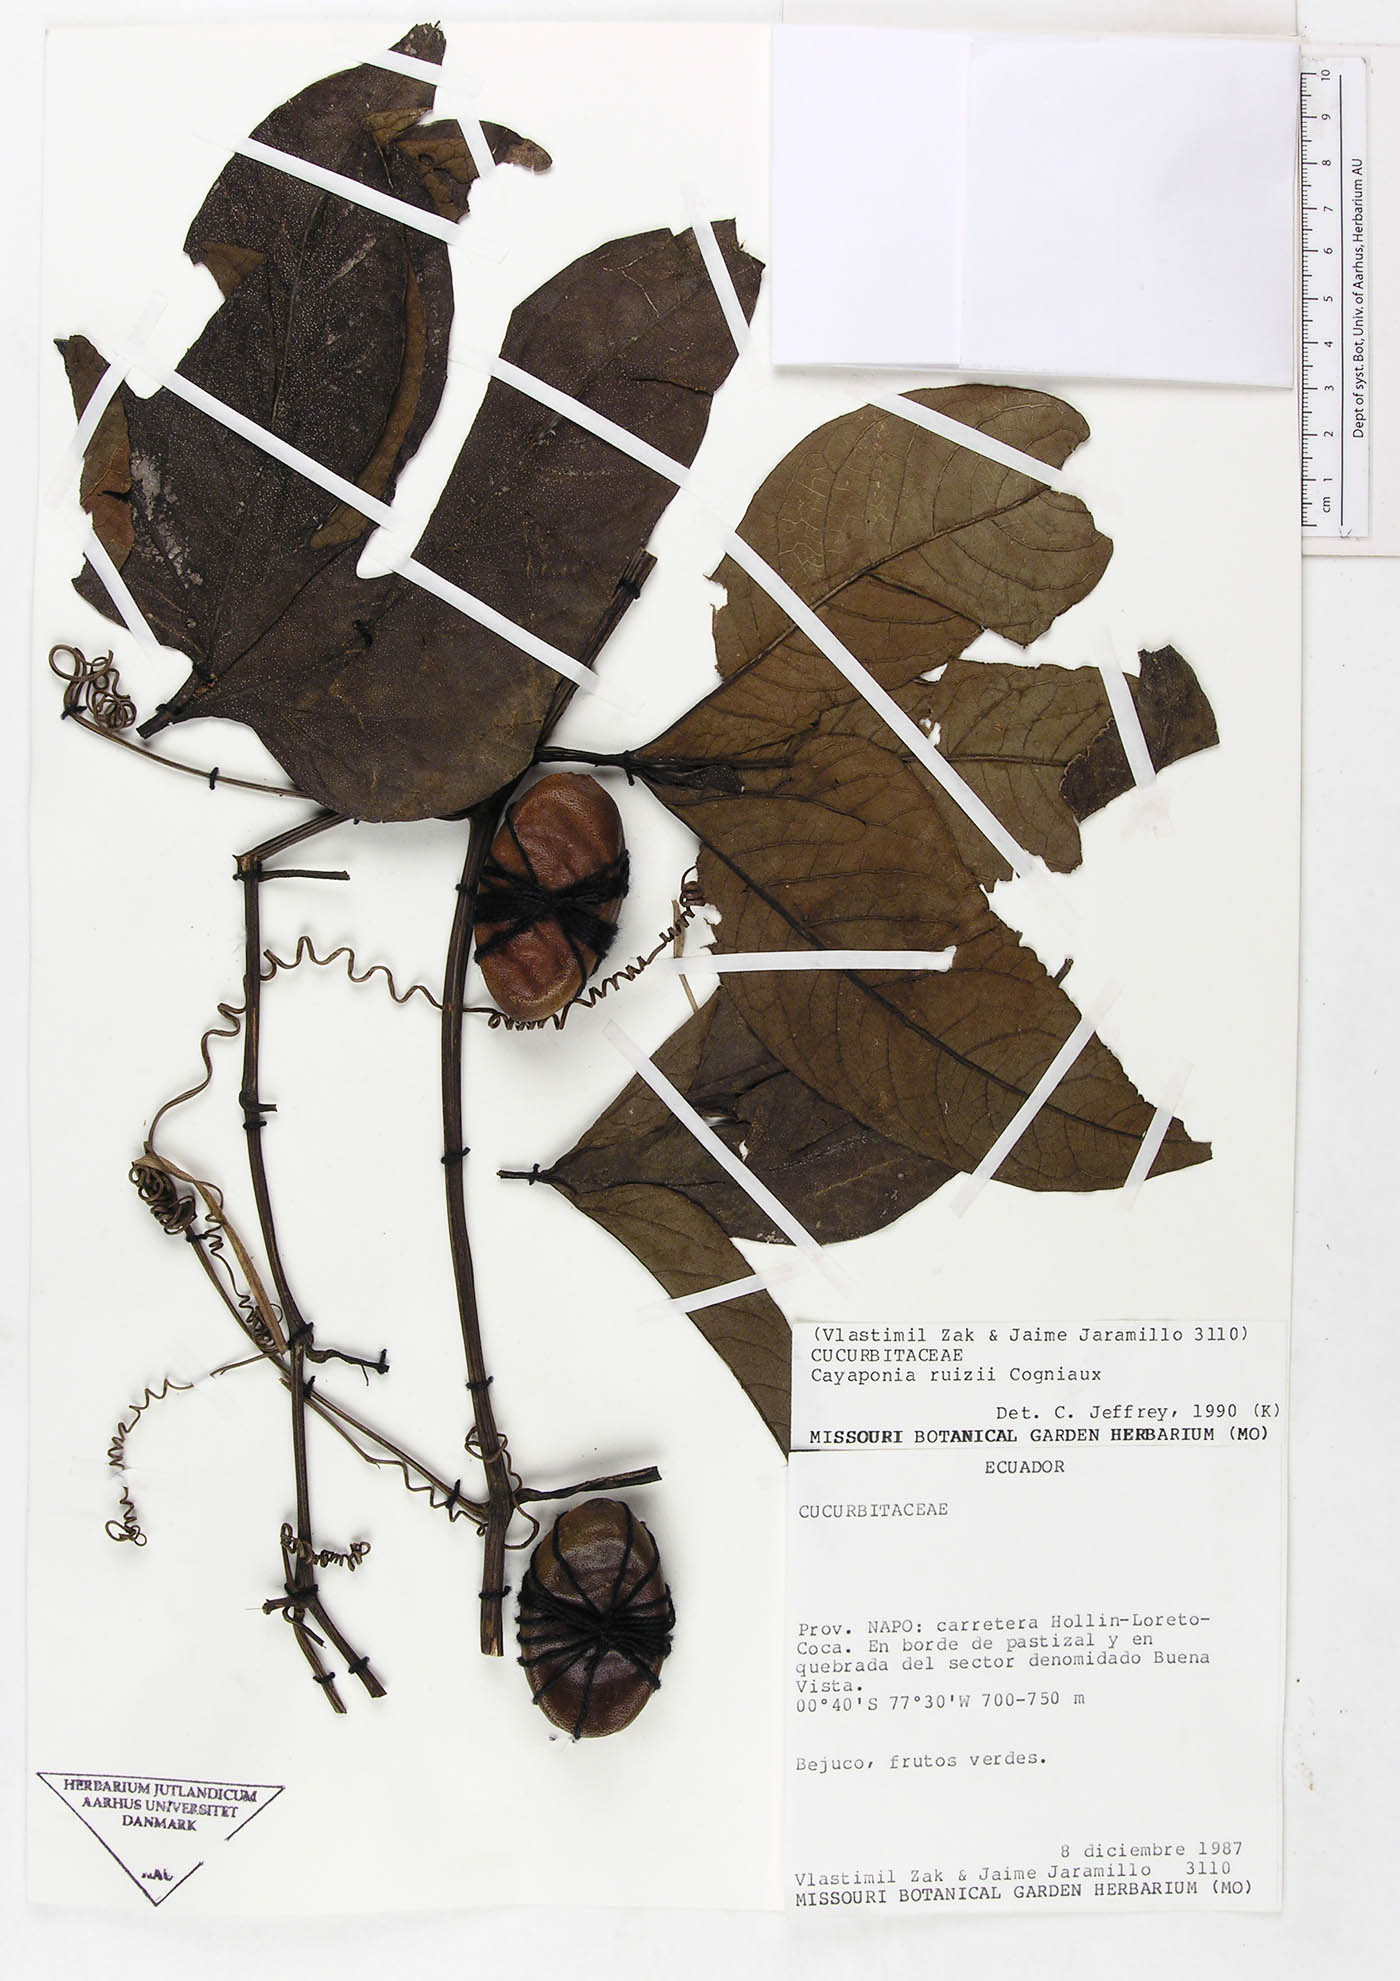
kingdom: Plantae
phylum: Tracheophyta
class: Magnoliopsida
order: Cucurbitales
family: Cucurbitaceae
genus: Cayaponia
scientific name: Cayaponia macrocalyx
